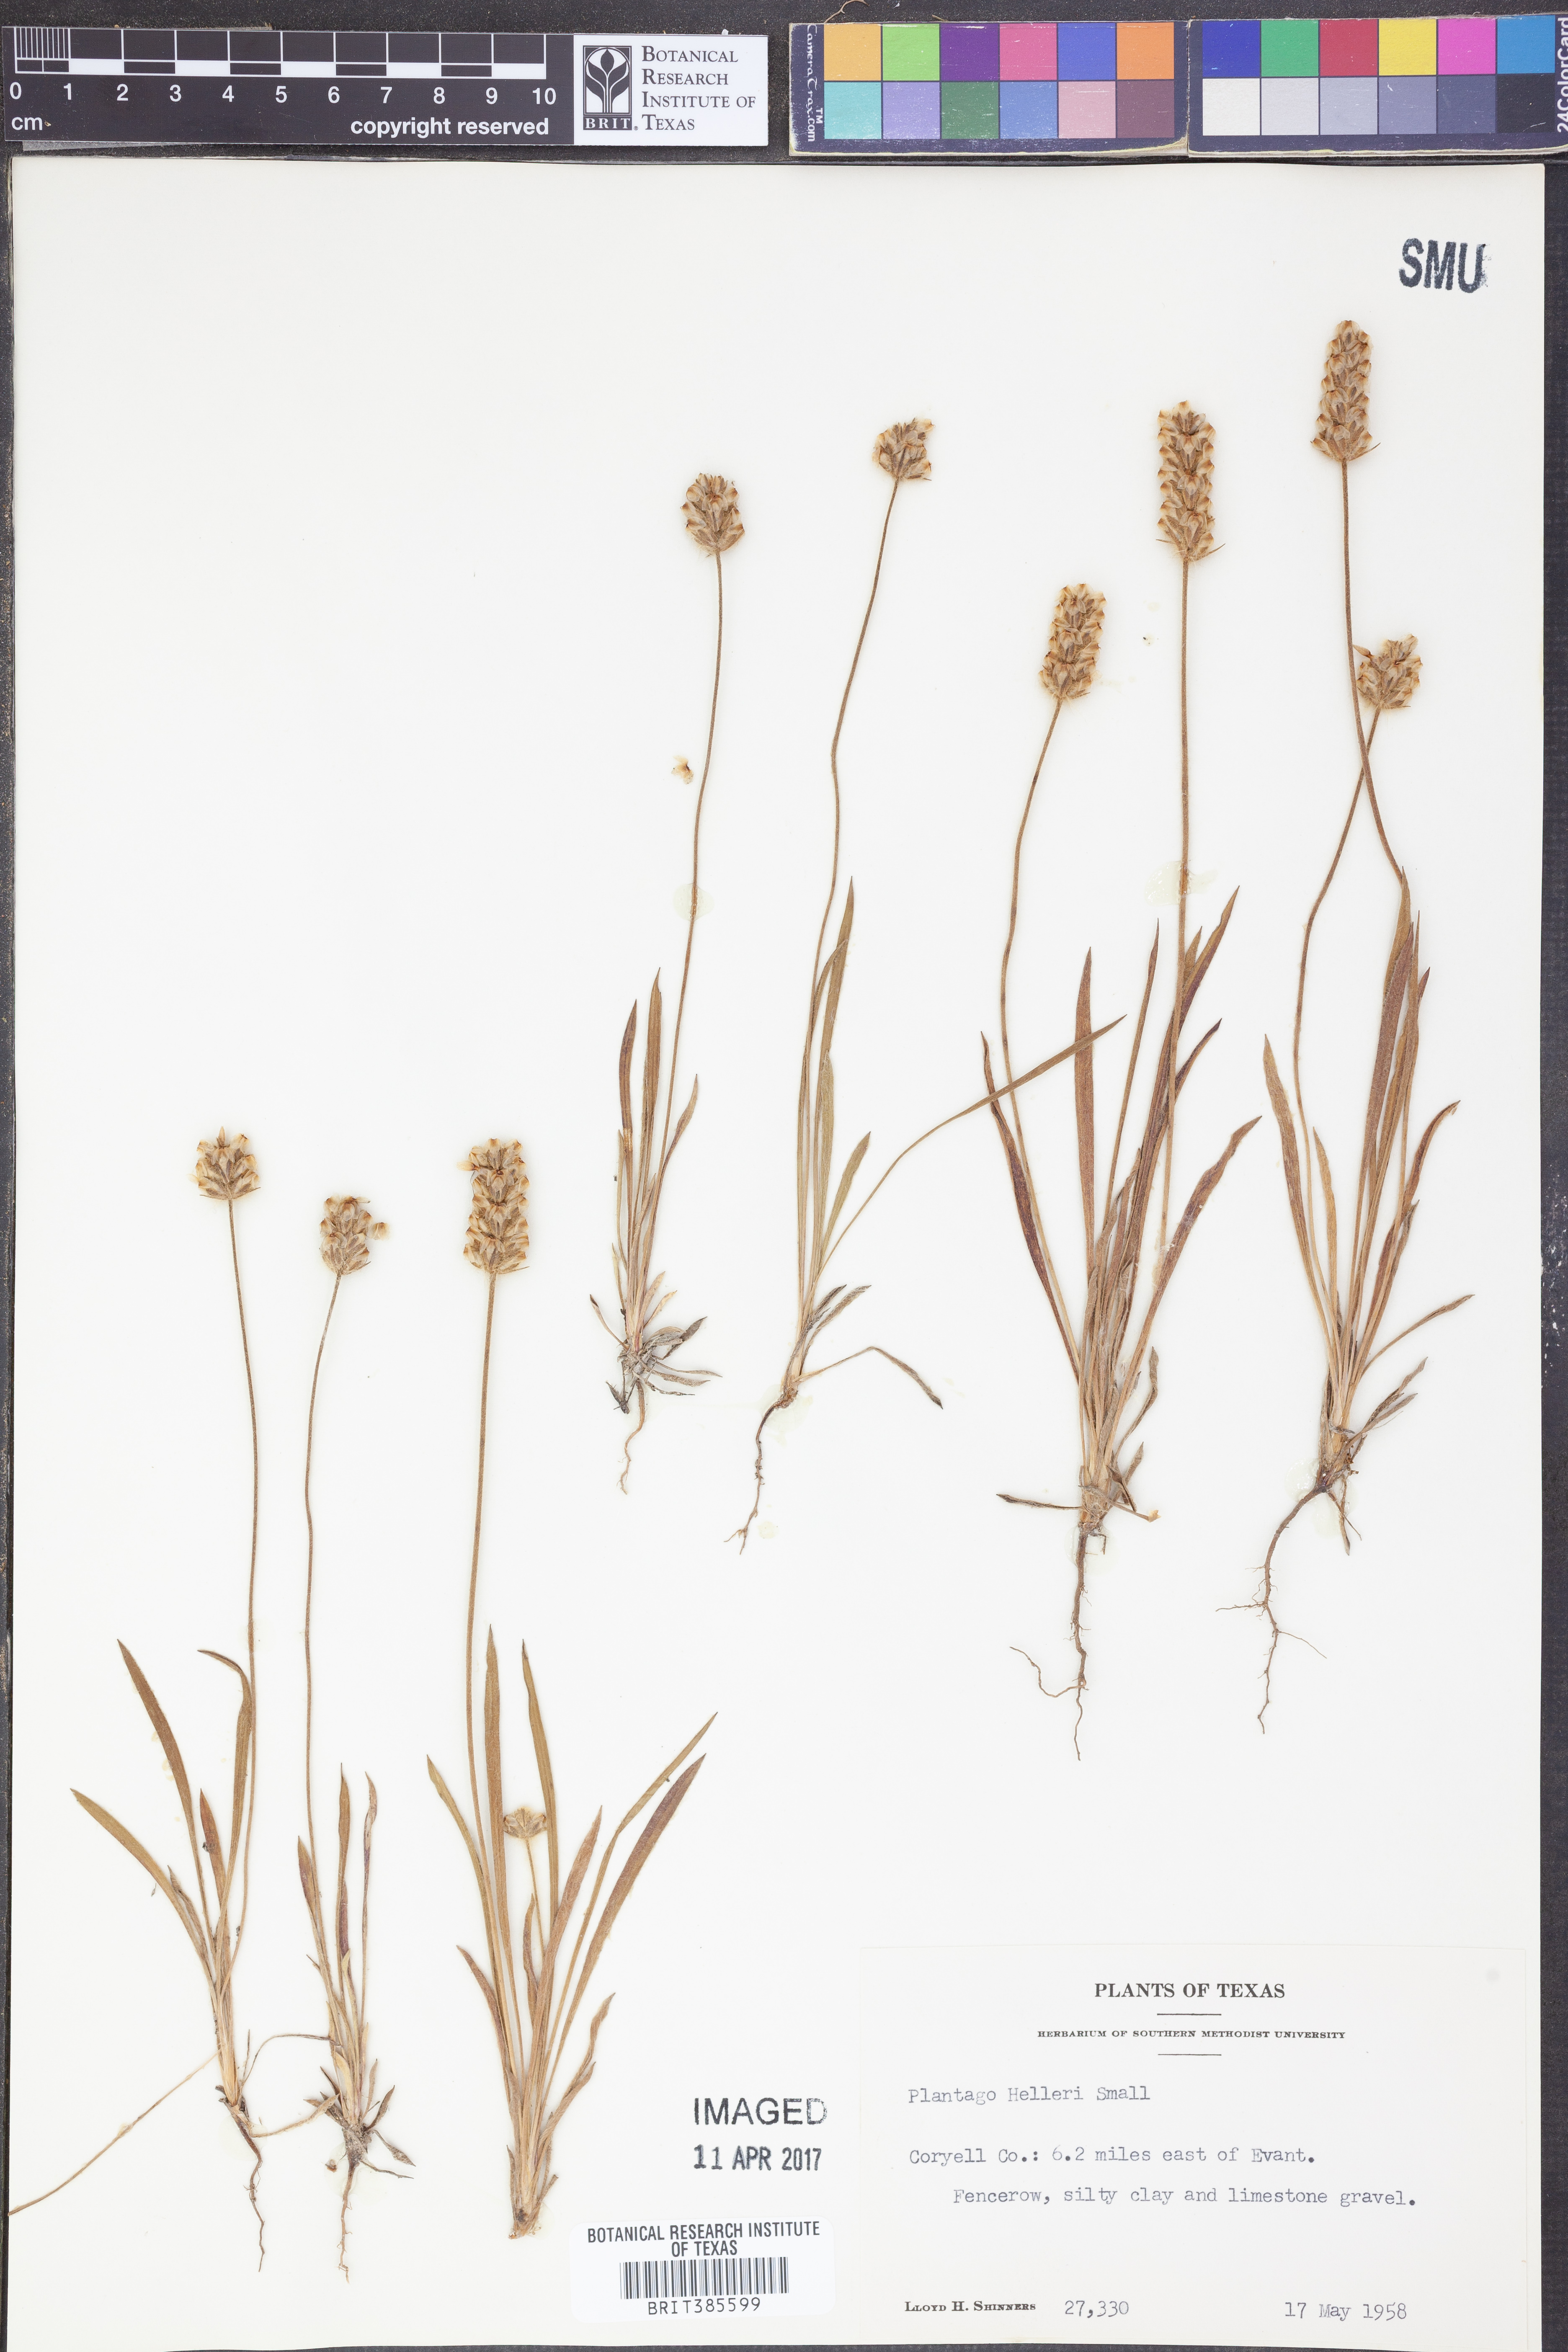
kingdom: Plantae
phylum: Tracheophyta
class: Magnoliopsida
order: Lamiales
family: Plantaginaceae
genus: Plantago
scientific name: Plantago helleri
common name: Heller's plantain
